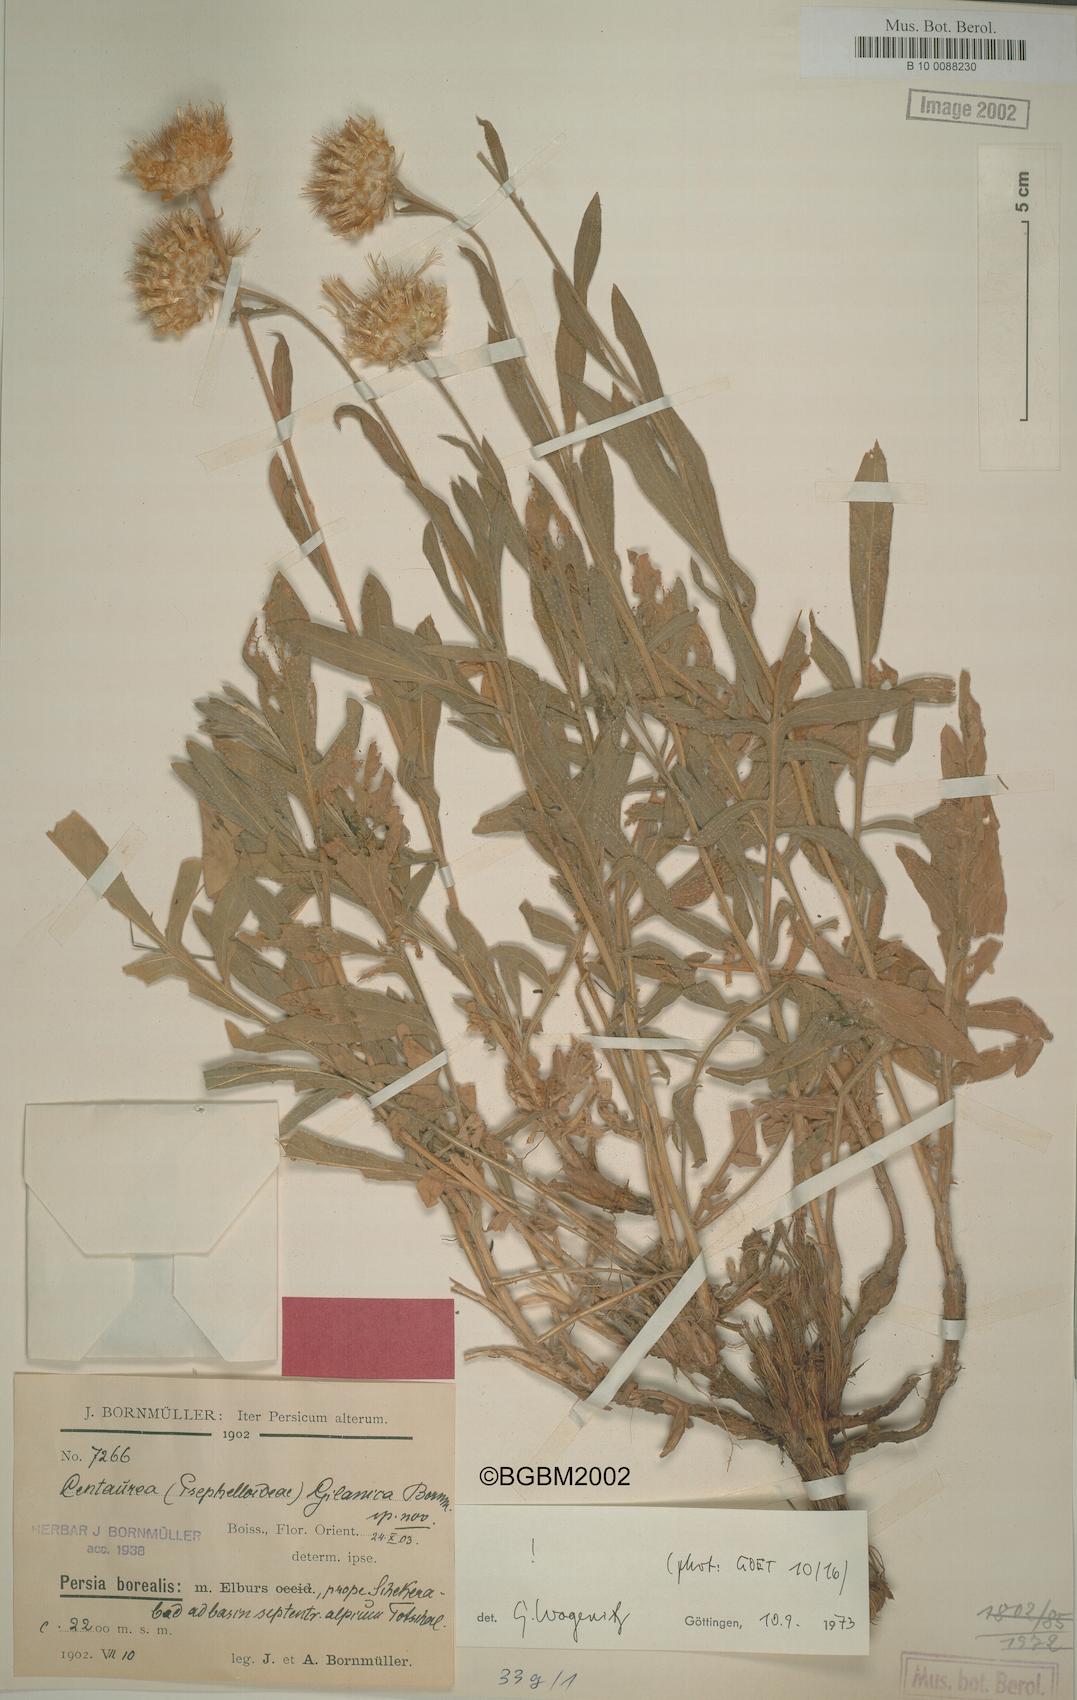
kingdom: Plantae
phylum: Tracheophyta
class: Magnoliopsida
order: Asterales
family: Asteraceae
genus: Psephellus
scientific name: Psephellus gilanicus
